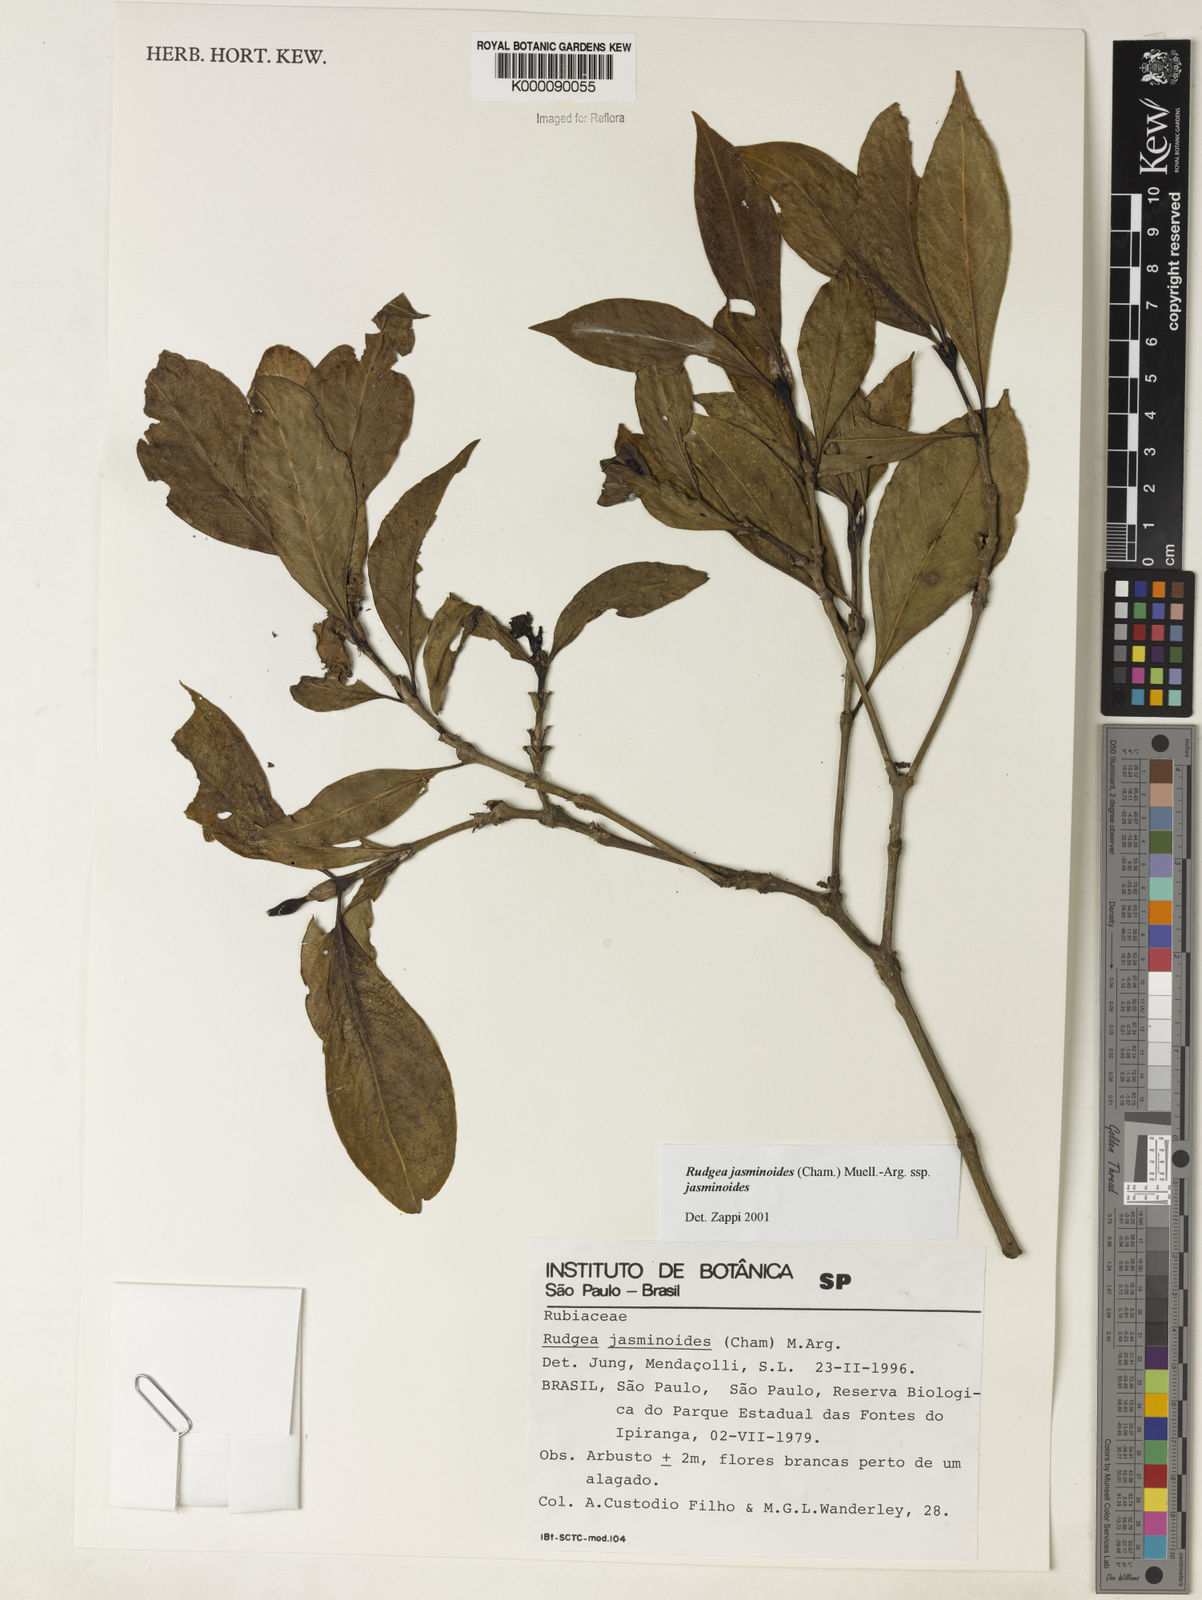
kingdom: Plantae
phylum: Tracheophyta
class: Magnoliopsida
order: Gentianales
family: Rubiaceae
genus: Rudgea
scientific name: Rudgea jasminoides
